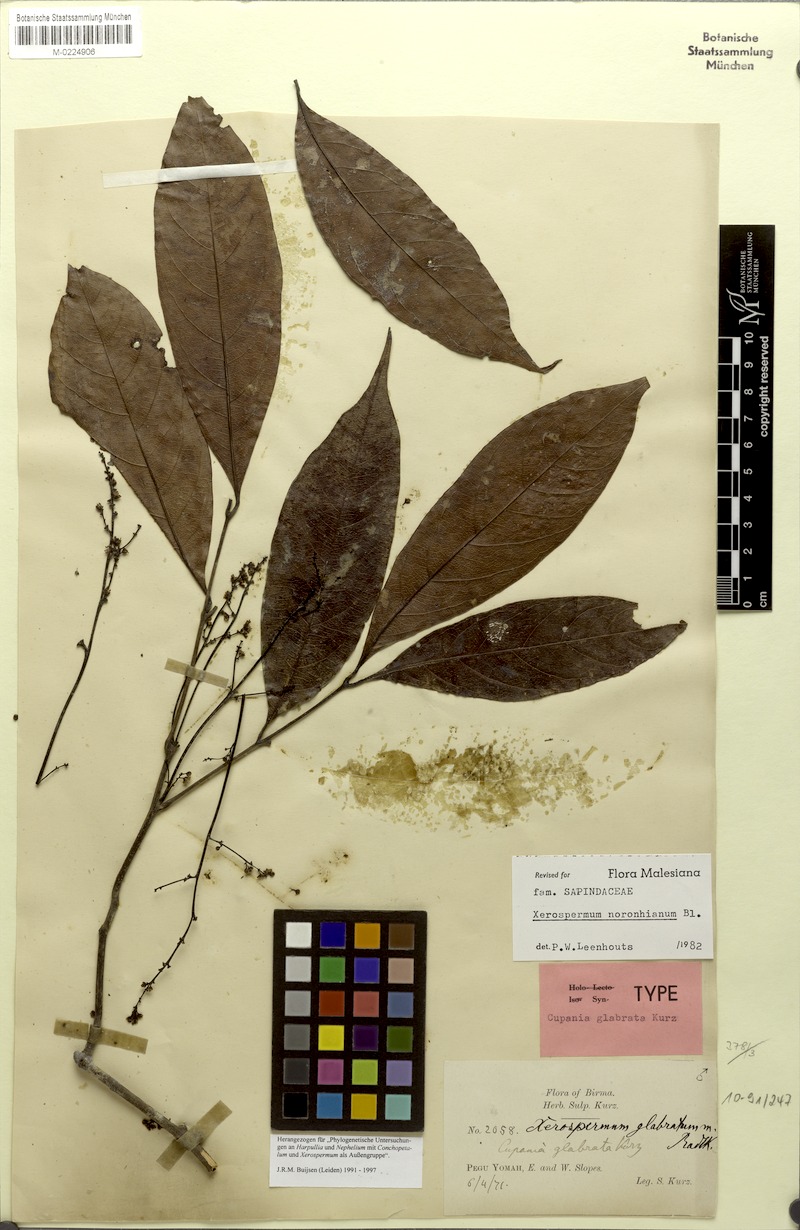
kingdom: Plantae
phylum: Tracheophyta
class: Magnoliopsida
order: Sapindales
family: Sapindaceae
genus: Xerospermum
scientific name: Xerospermum noronhianum
